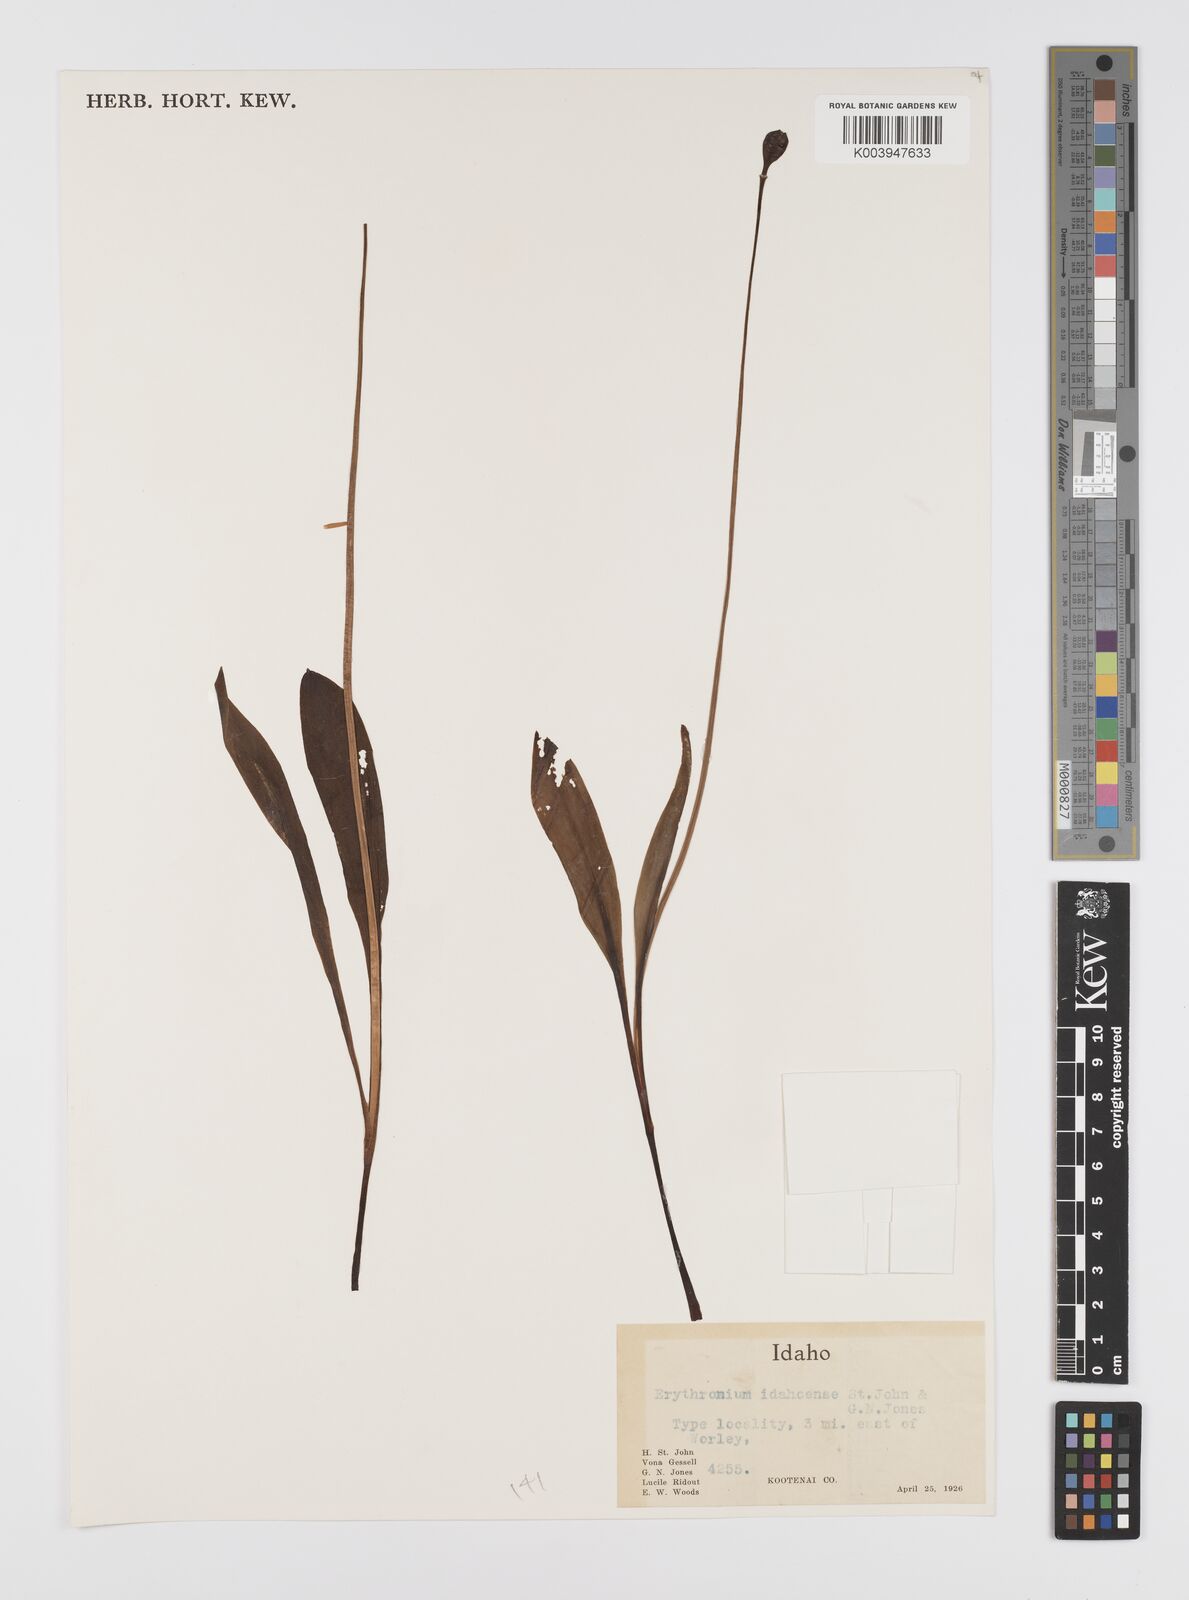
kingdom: Plantae
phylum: Tracheophyta
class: Liliopsida
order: Liliales
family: Liliaceae
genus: Erythronium
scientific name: Erythronium idahoense
